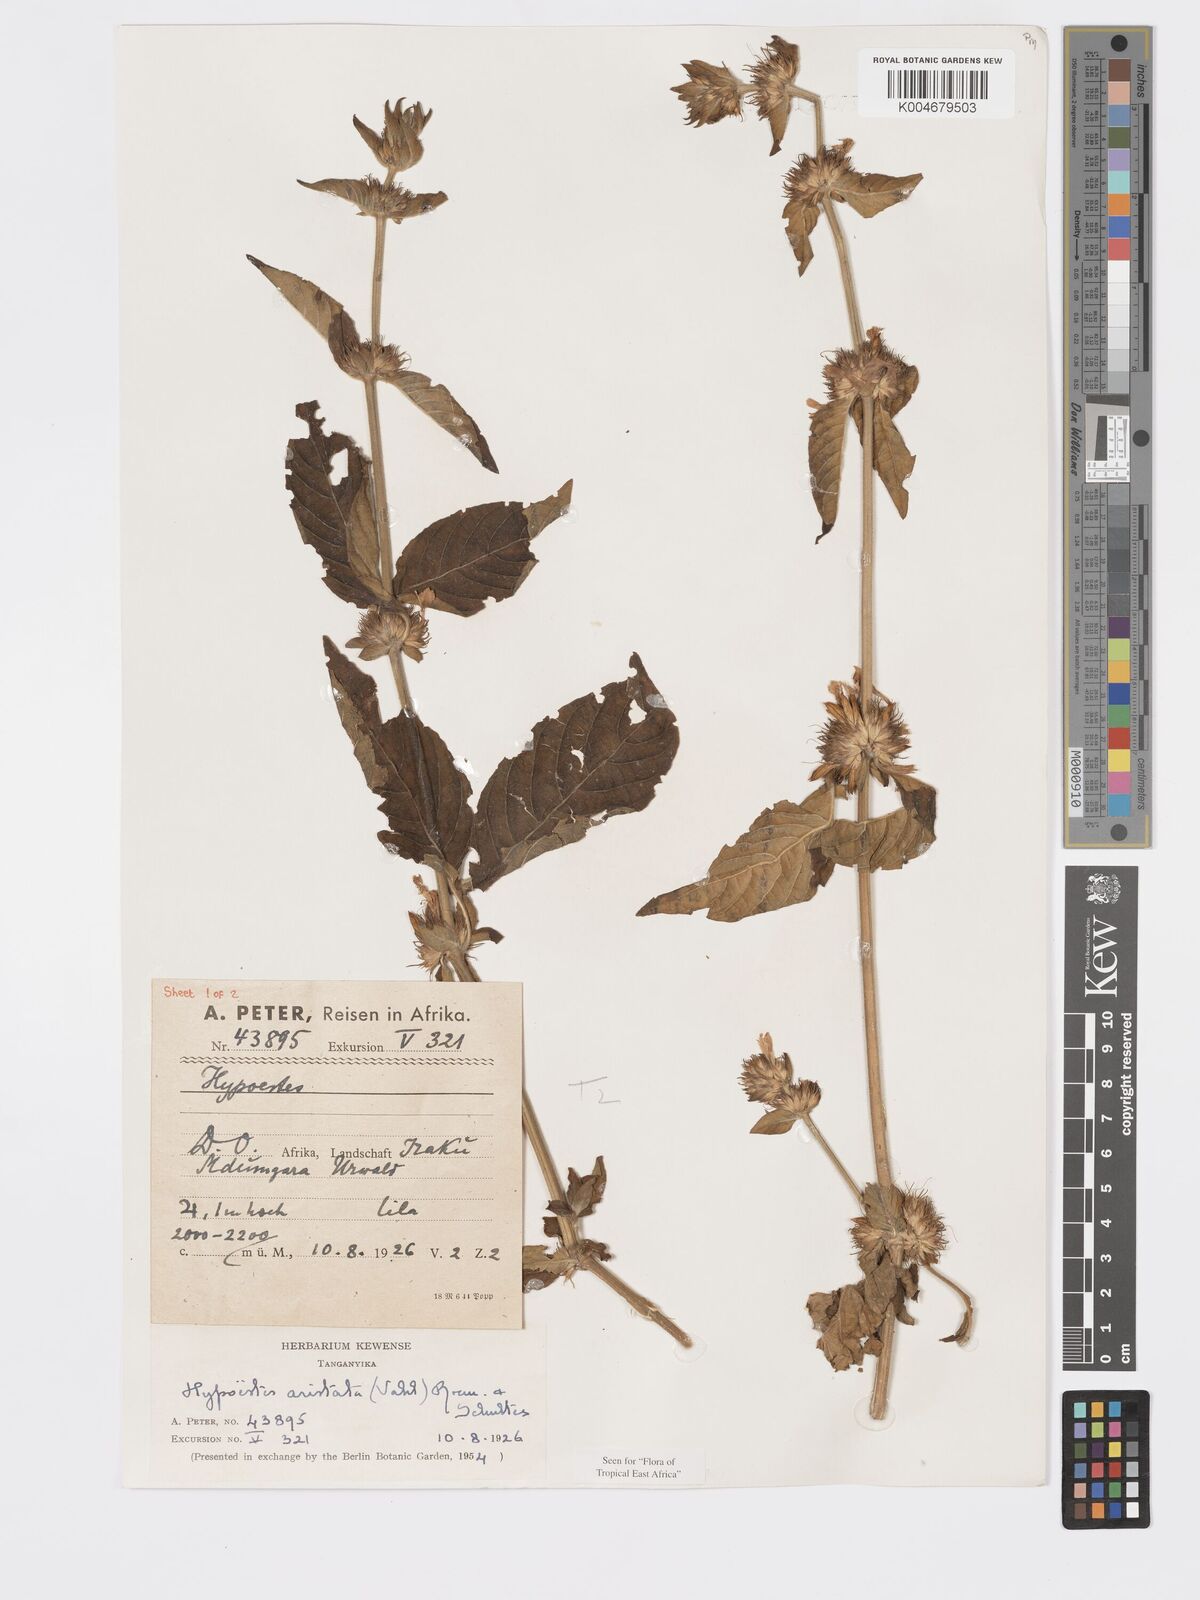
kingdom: Plantae
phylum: Tracheophyta
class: Magnoliopsida
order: Lamiales
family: Acanthaceae
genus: Hypoestes
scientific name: Hypoestes aristata
